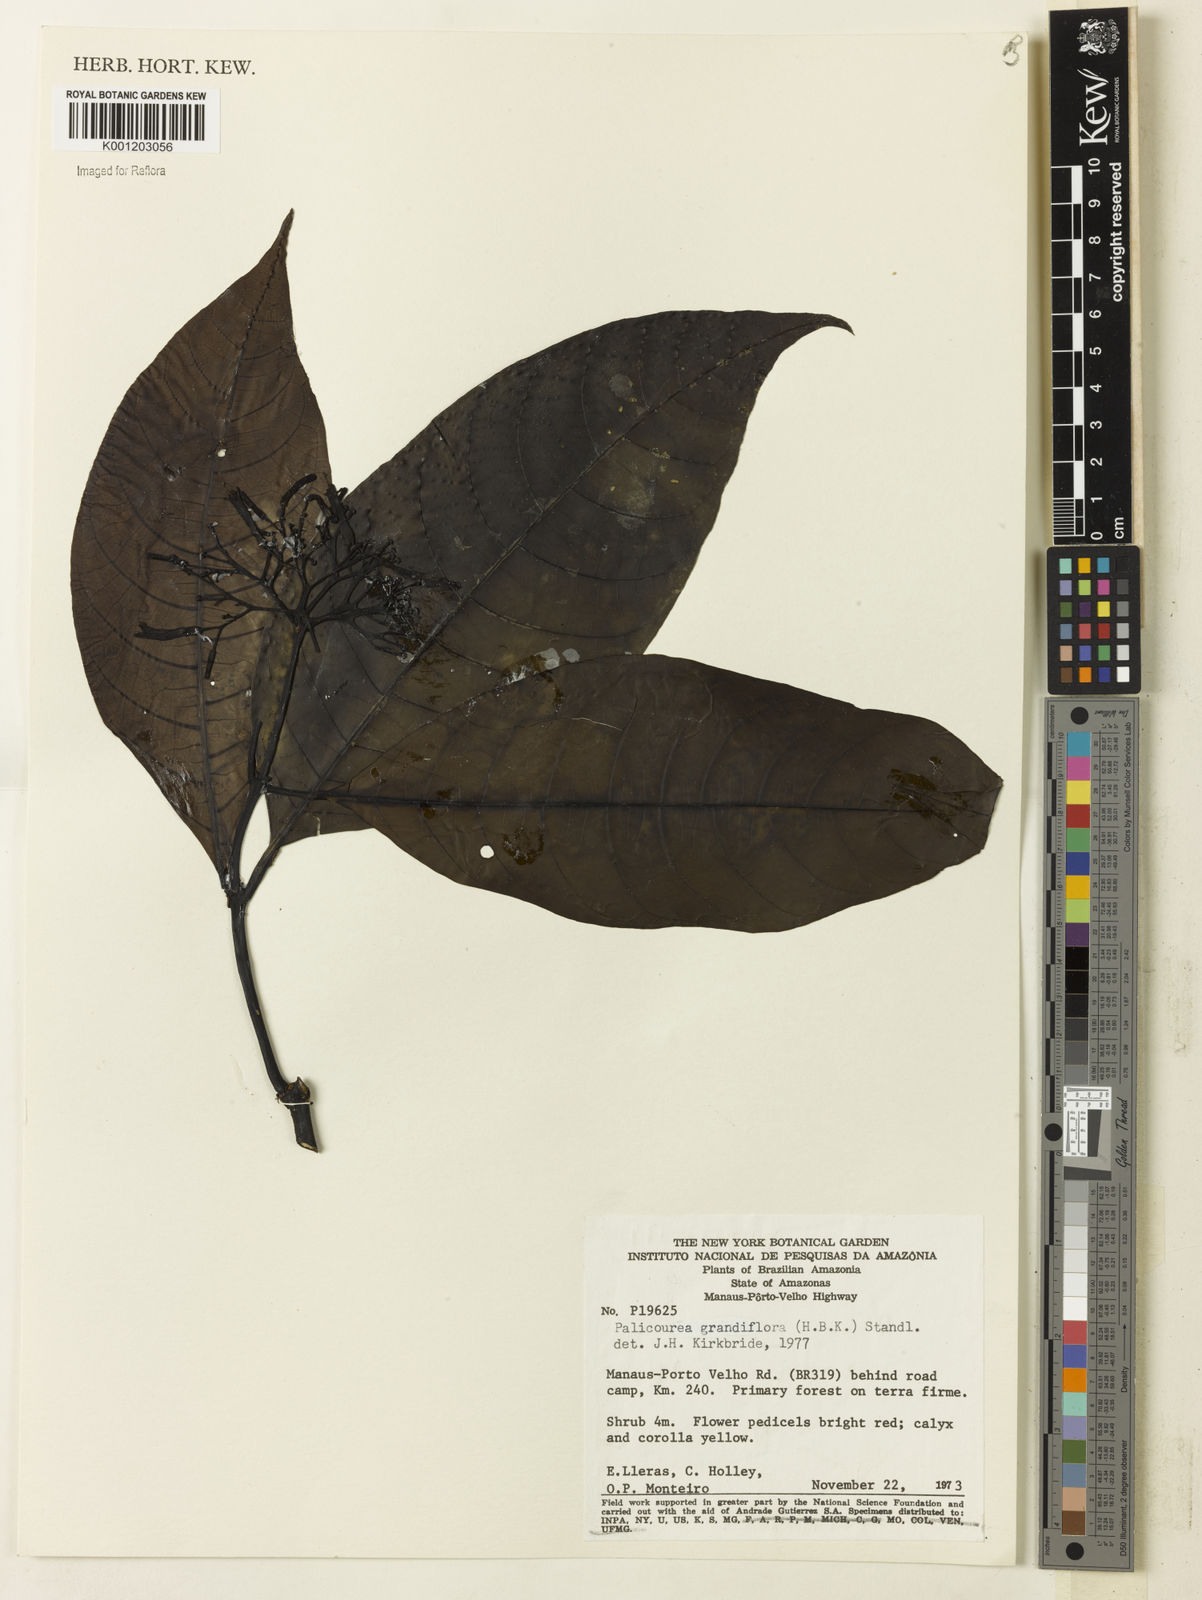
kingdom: Plantae
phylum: Tracheophyta
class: Magnoliopsida
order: Gentianales
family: Rubiaceae
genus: Palicourea
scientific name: Palicourea grandiflora
